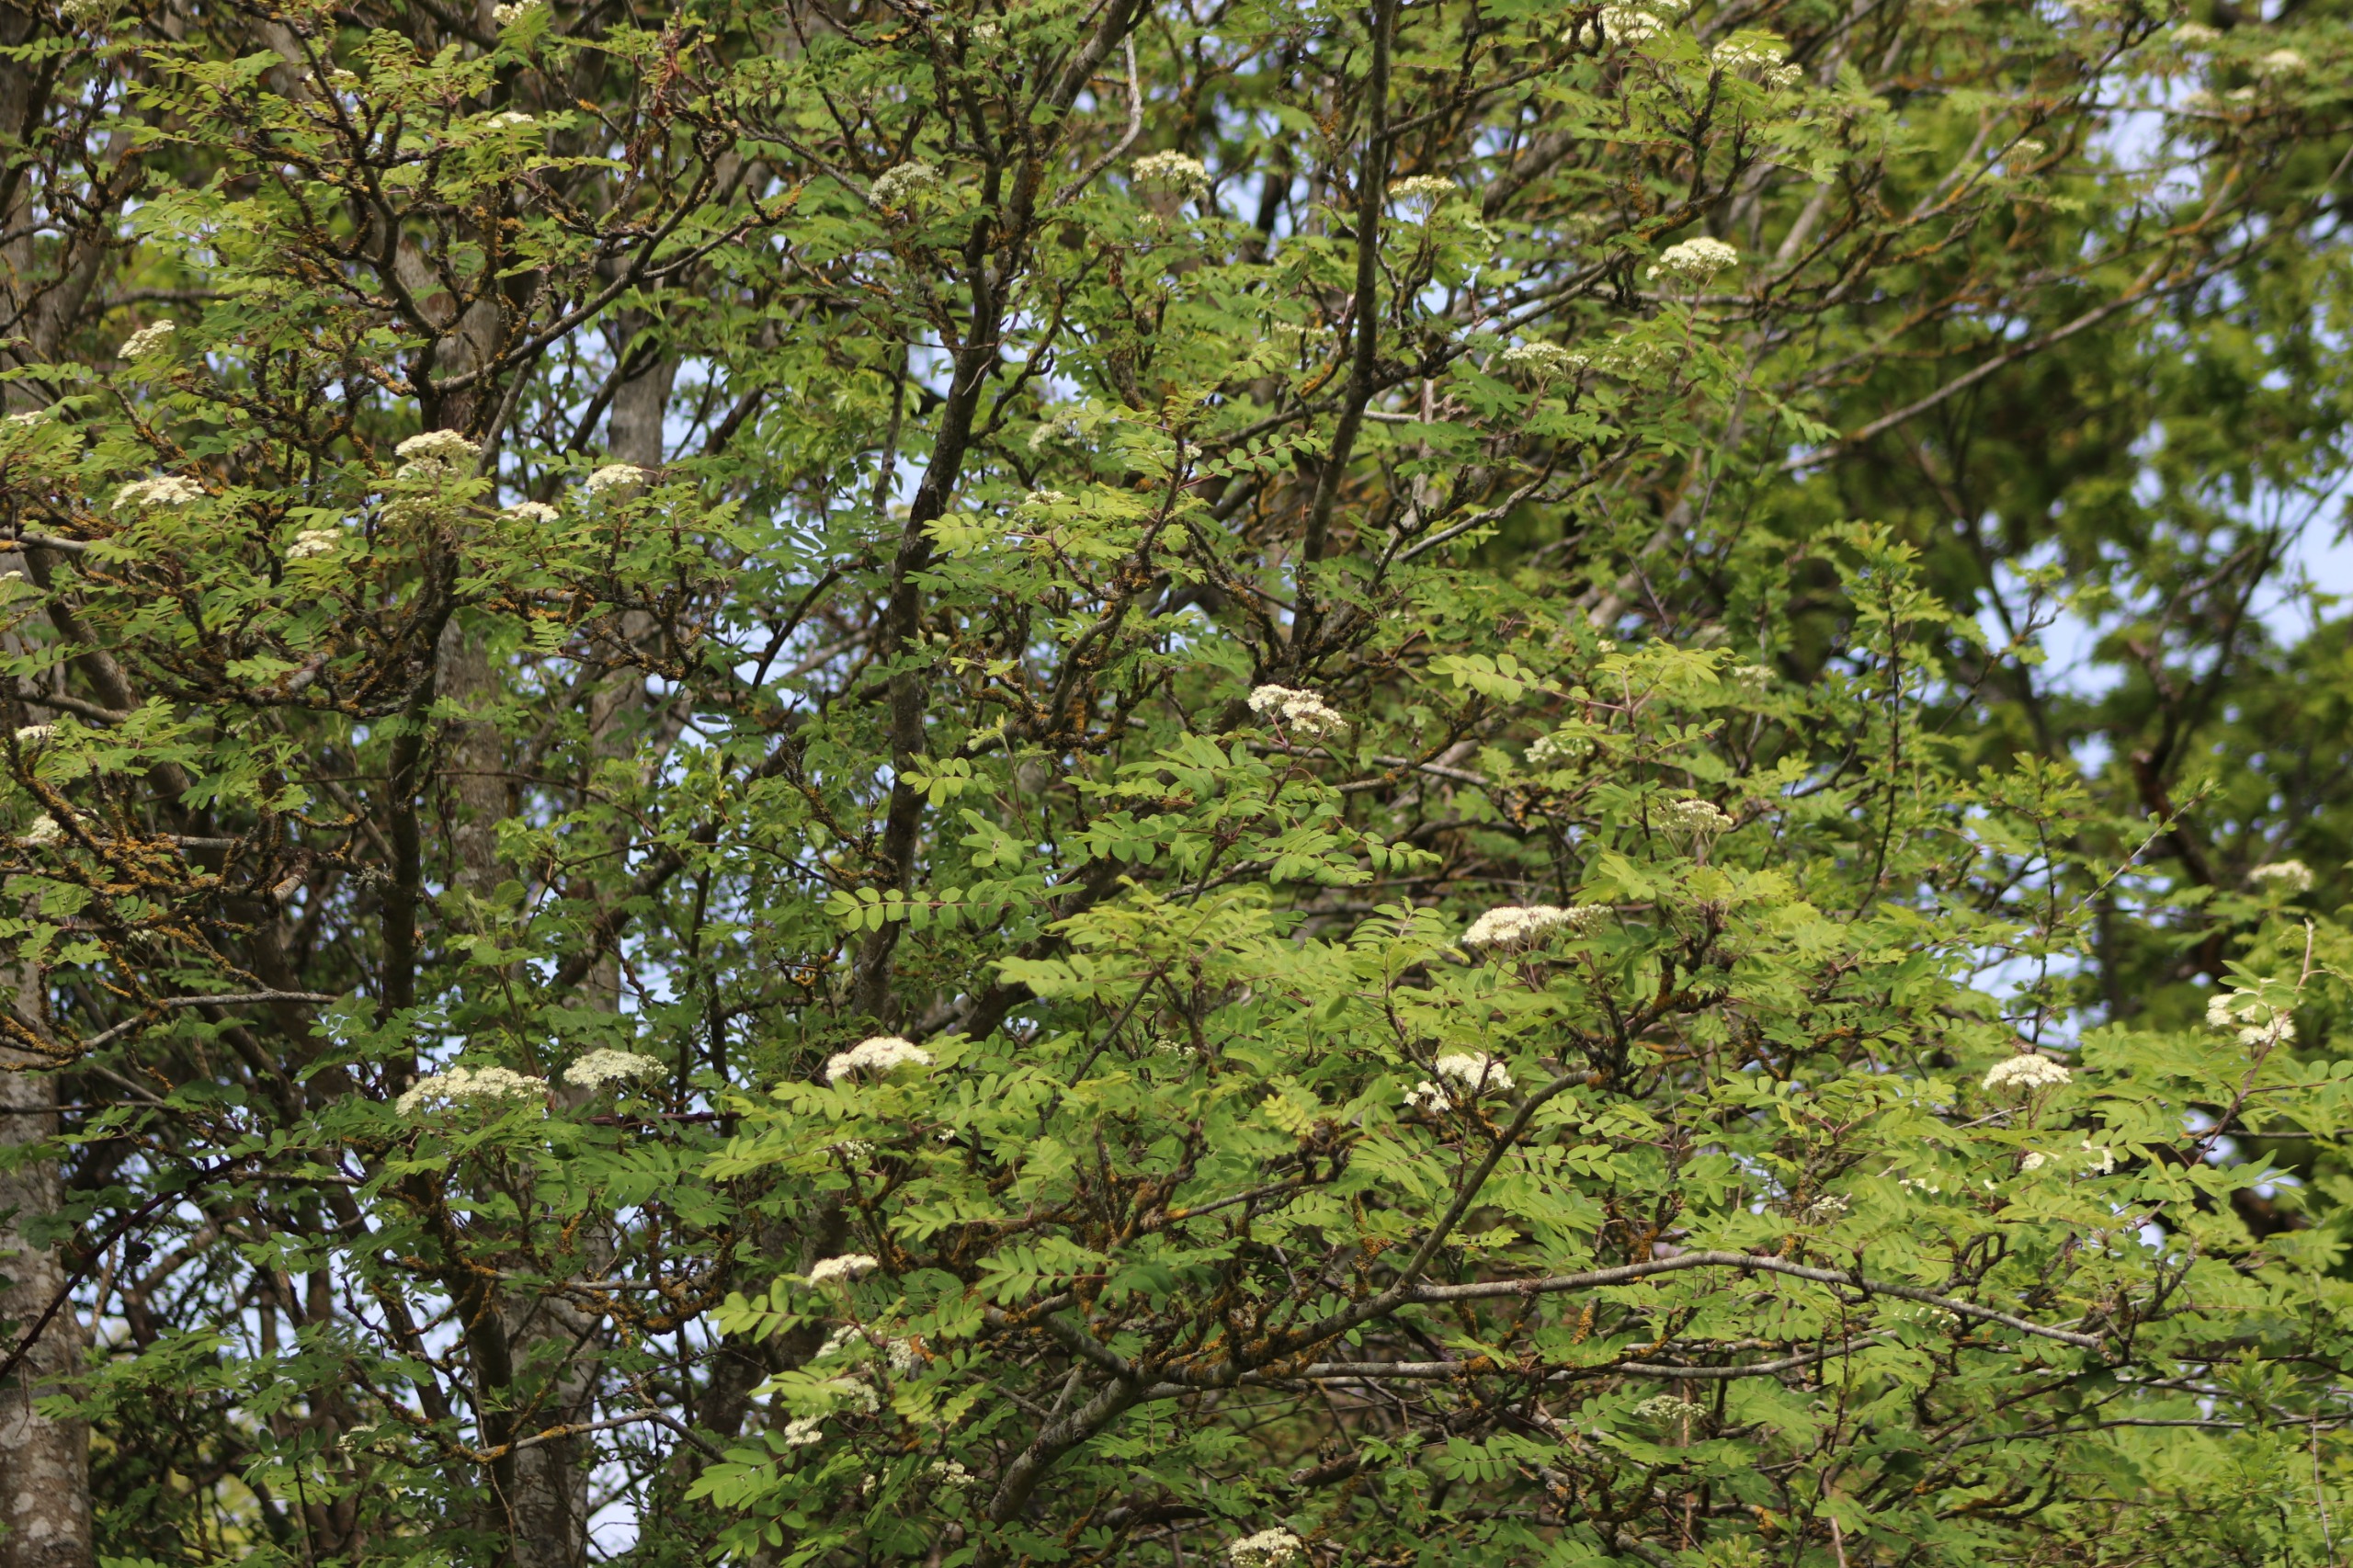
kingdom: Plantae
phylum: Tracheophyta
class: Magnoliopsida
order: Rosales
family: Rosaceae
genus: Sorbus
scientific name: Sorbus aucuparia
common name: Almindelig røn
